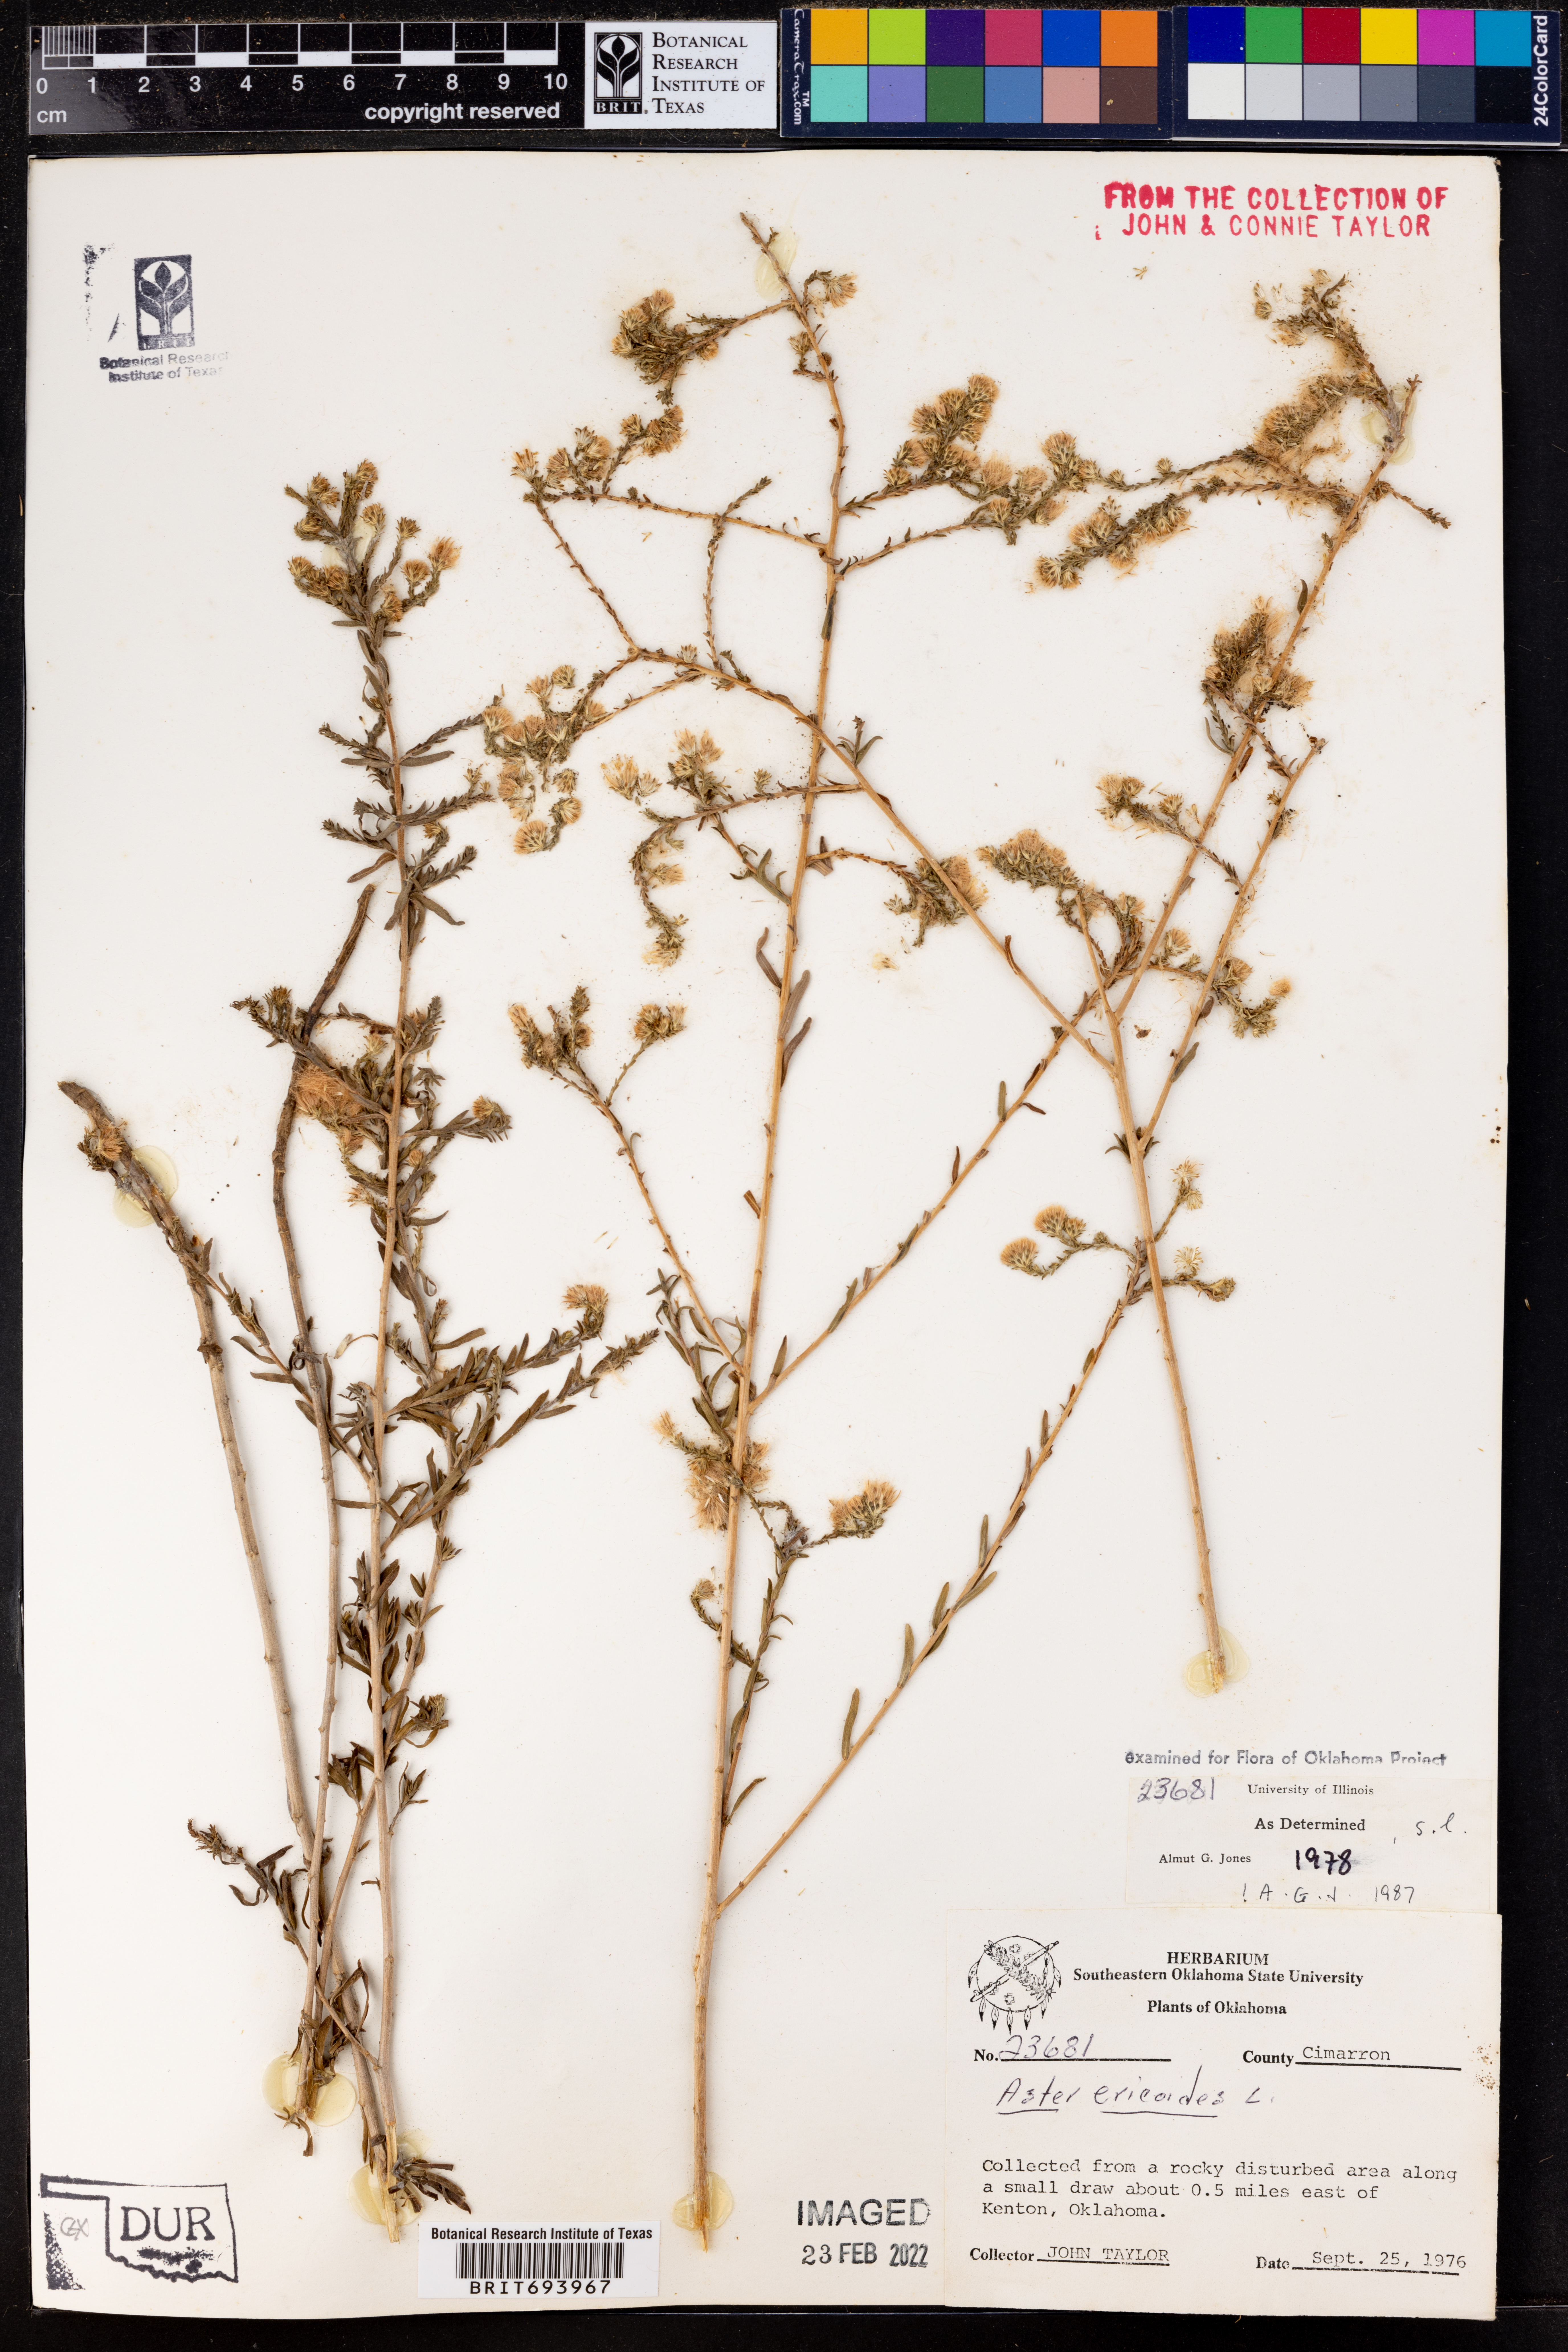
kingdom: Plantae
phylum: Tracheophyta
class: Magnoliopsida
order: Asterales
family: Asteraceae
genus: Symphyotrichum
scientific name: Symphyotrichum ericoides
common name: Heath aster
